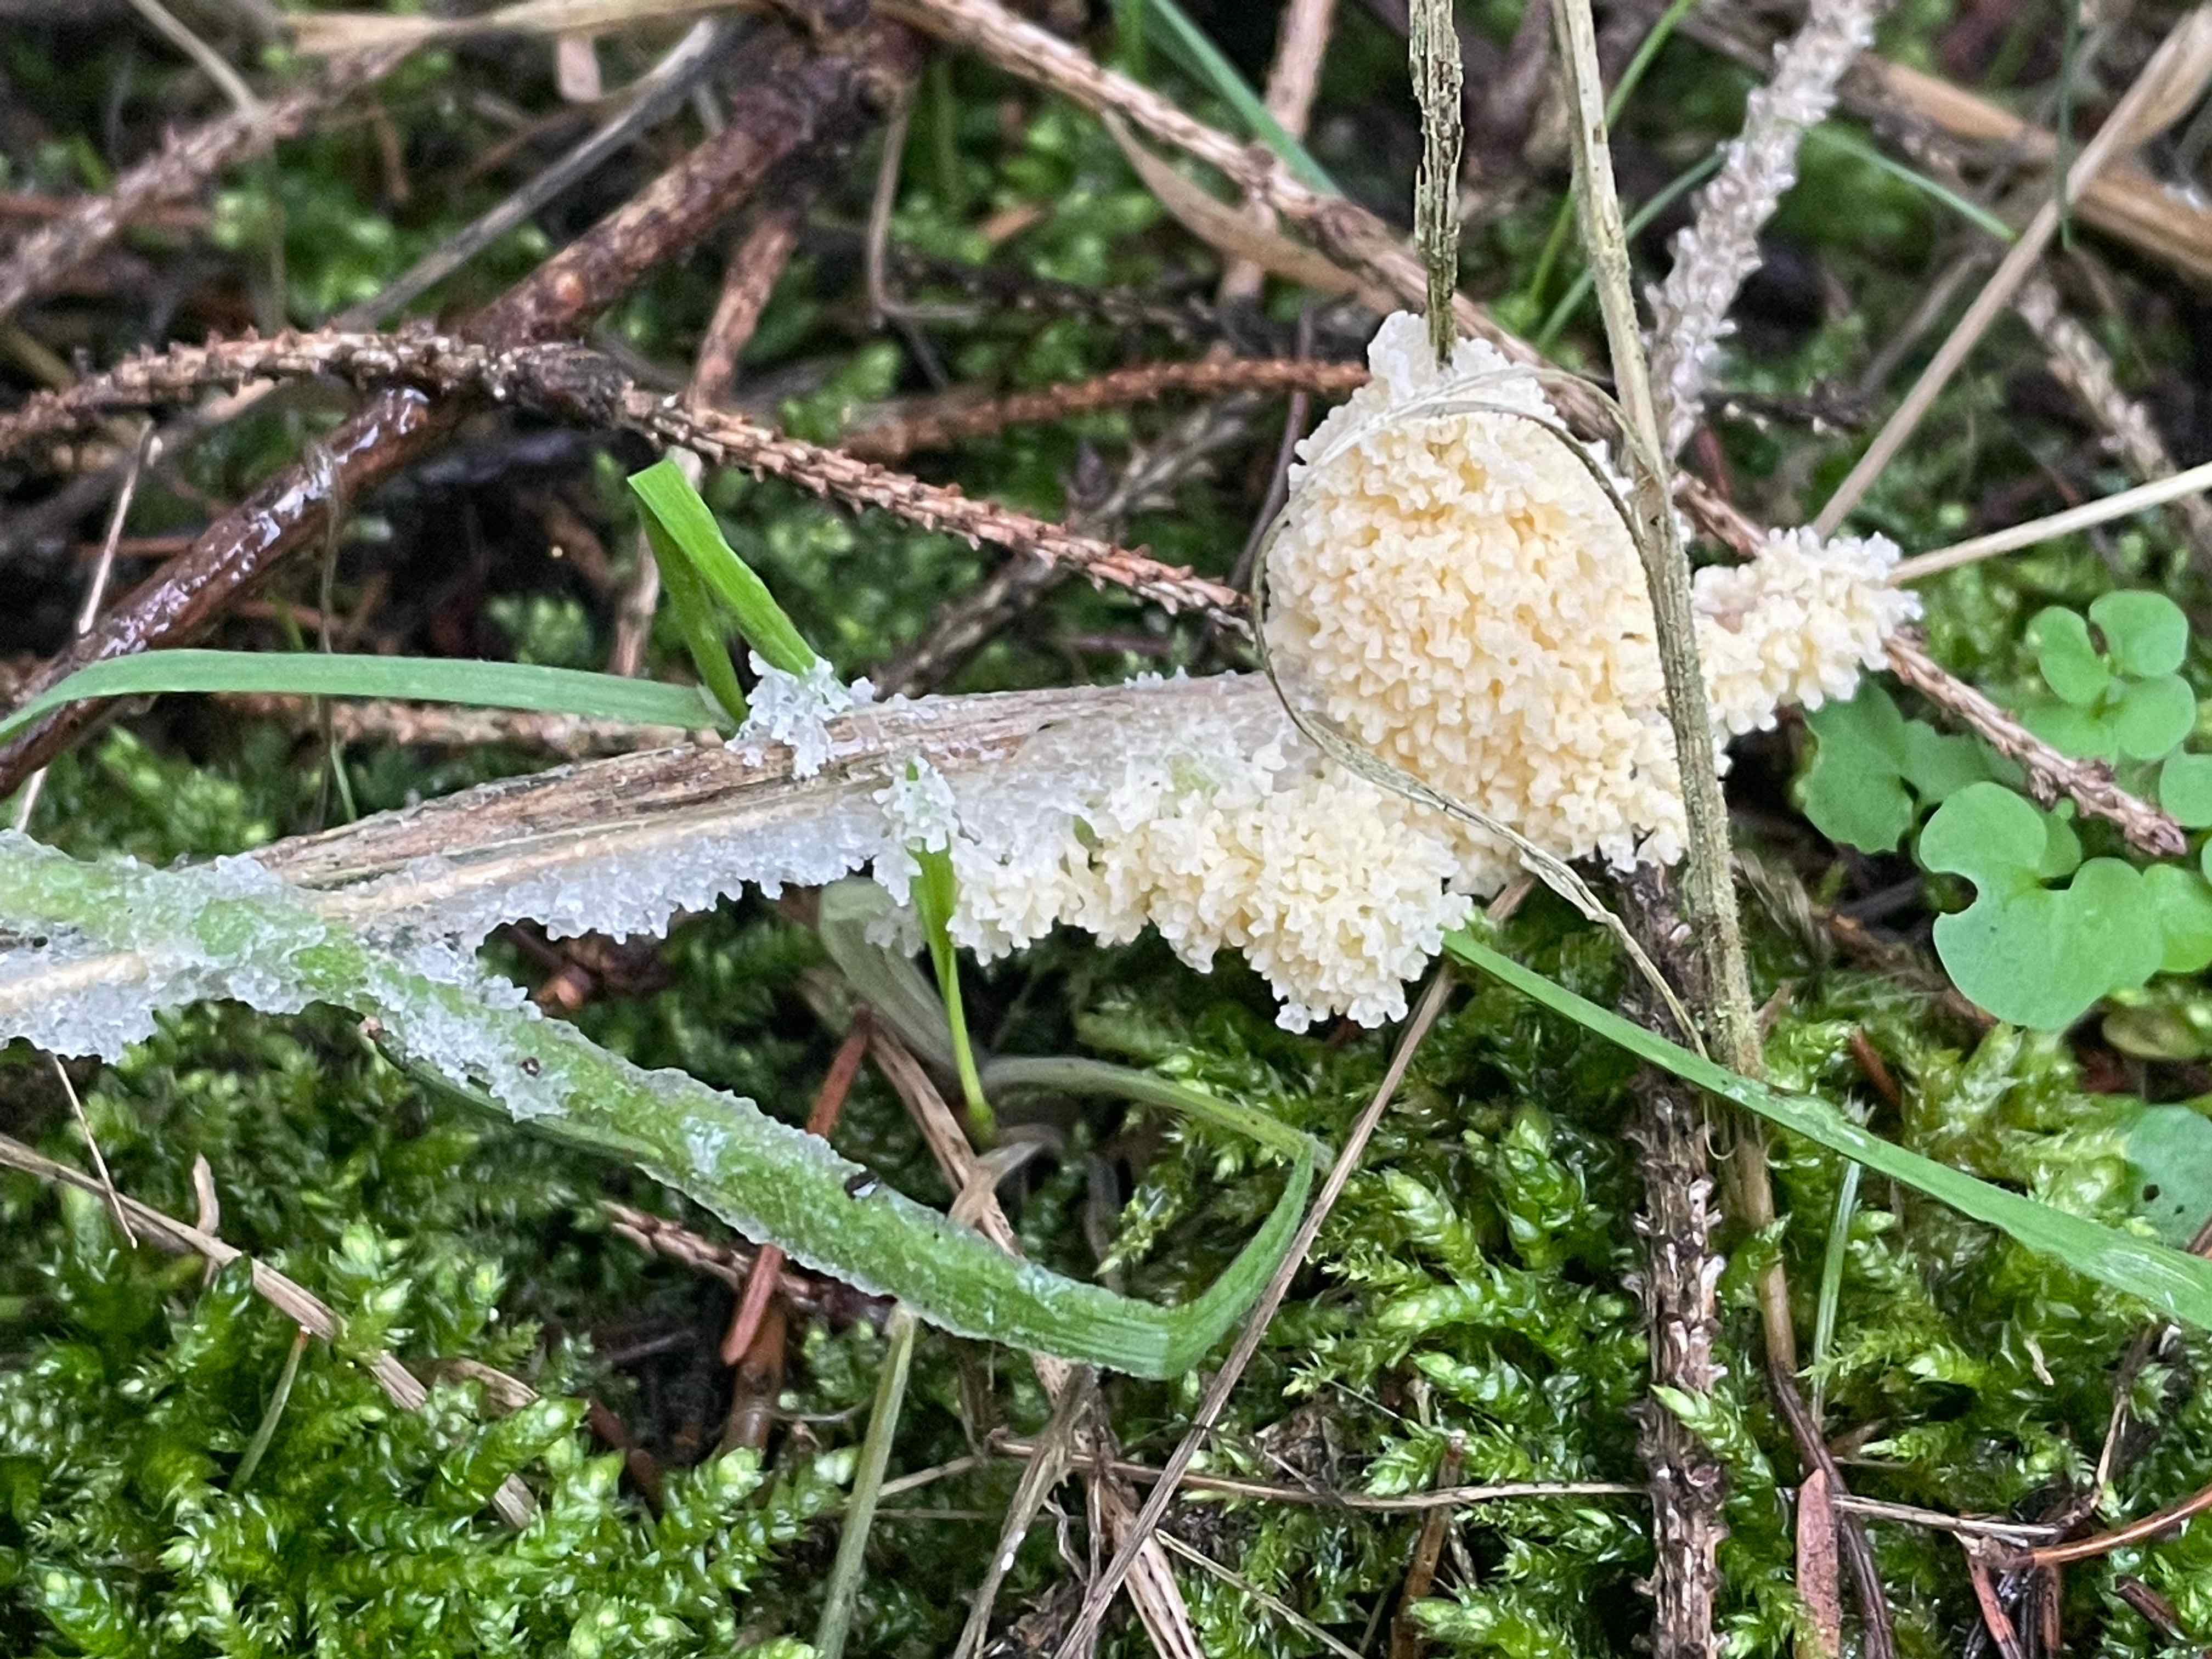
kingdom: Protozoa
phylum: Mycetozoa
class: Myxomycetes
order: Physarales
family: Physaraceae
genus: Didymium
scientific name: Didymium
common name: urteskum
